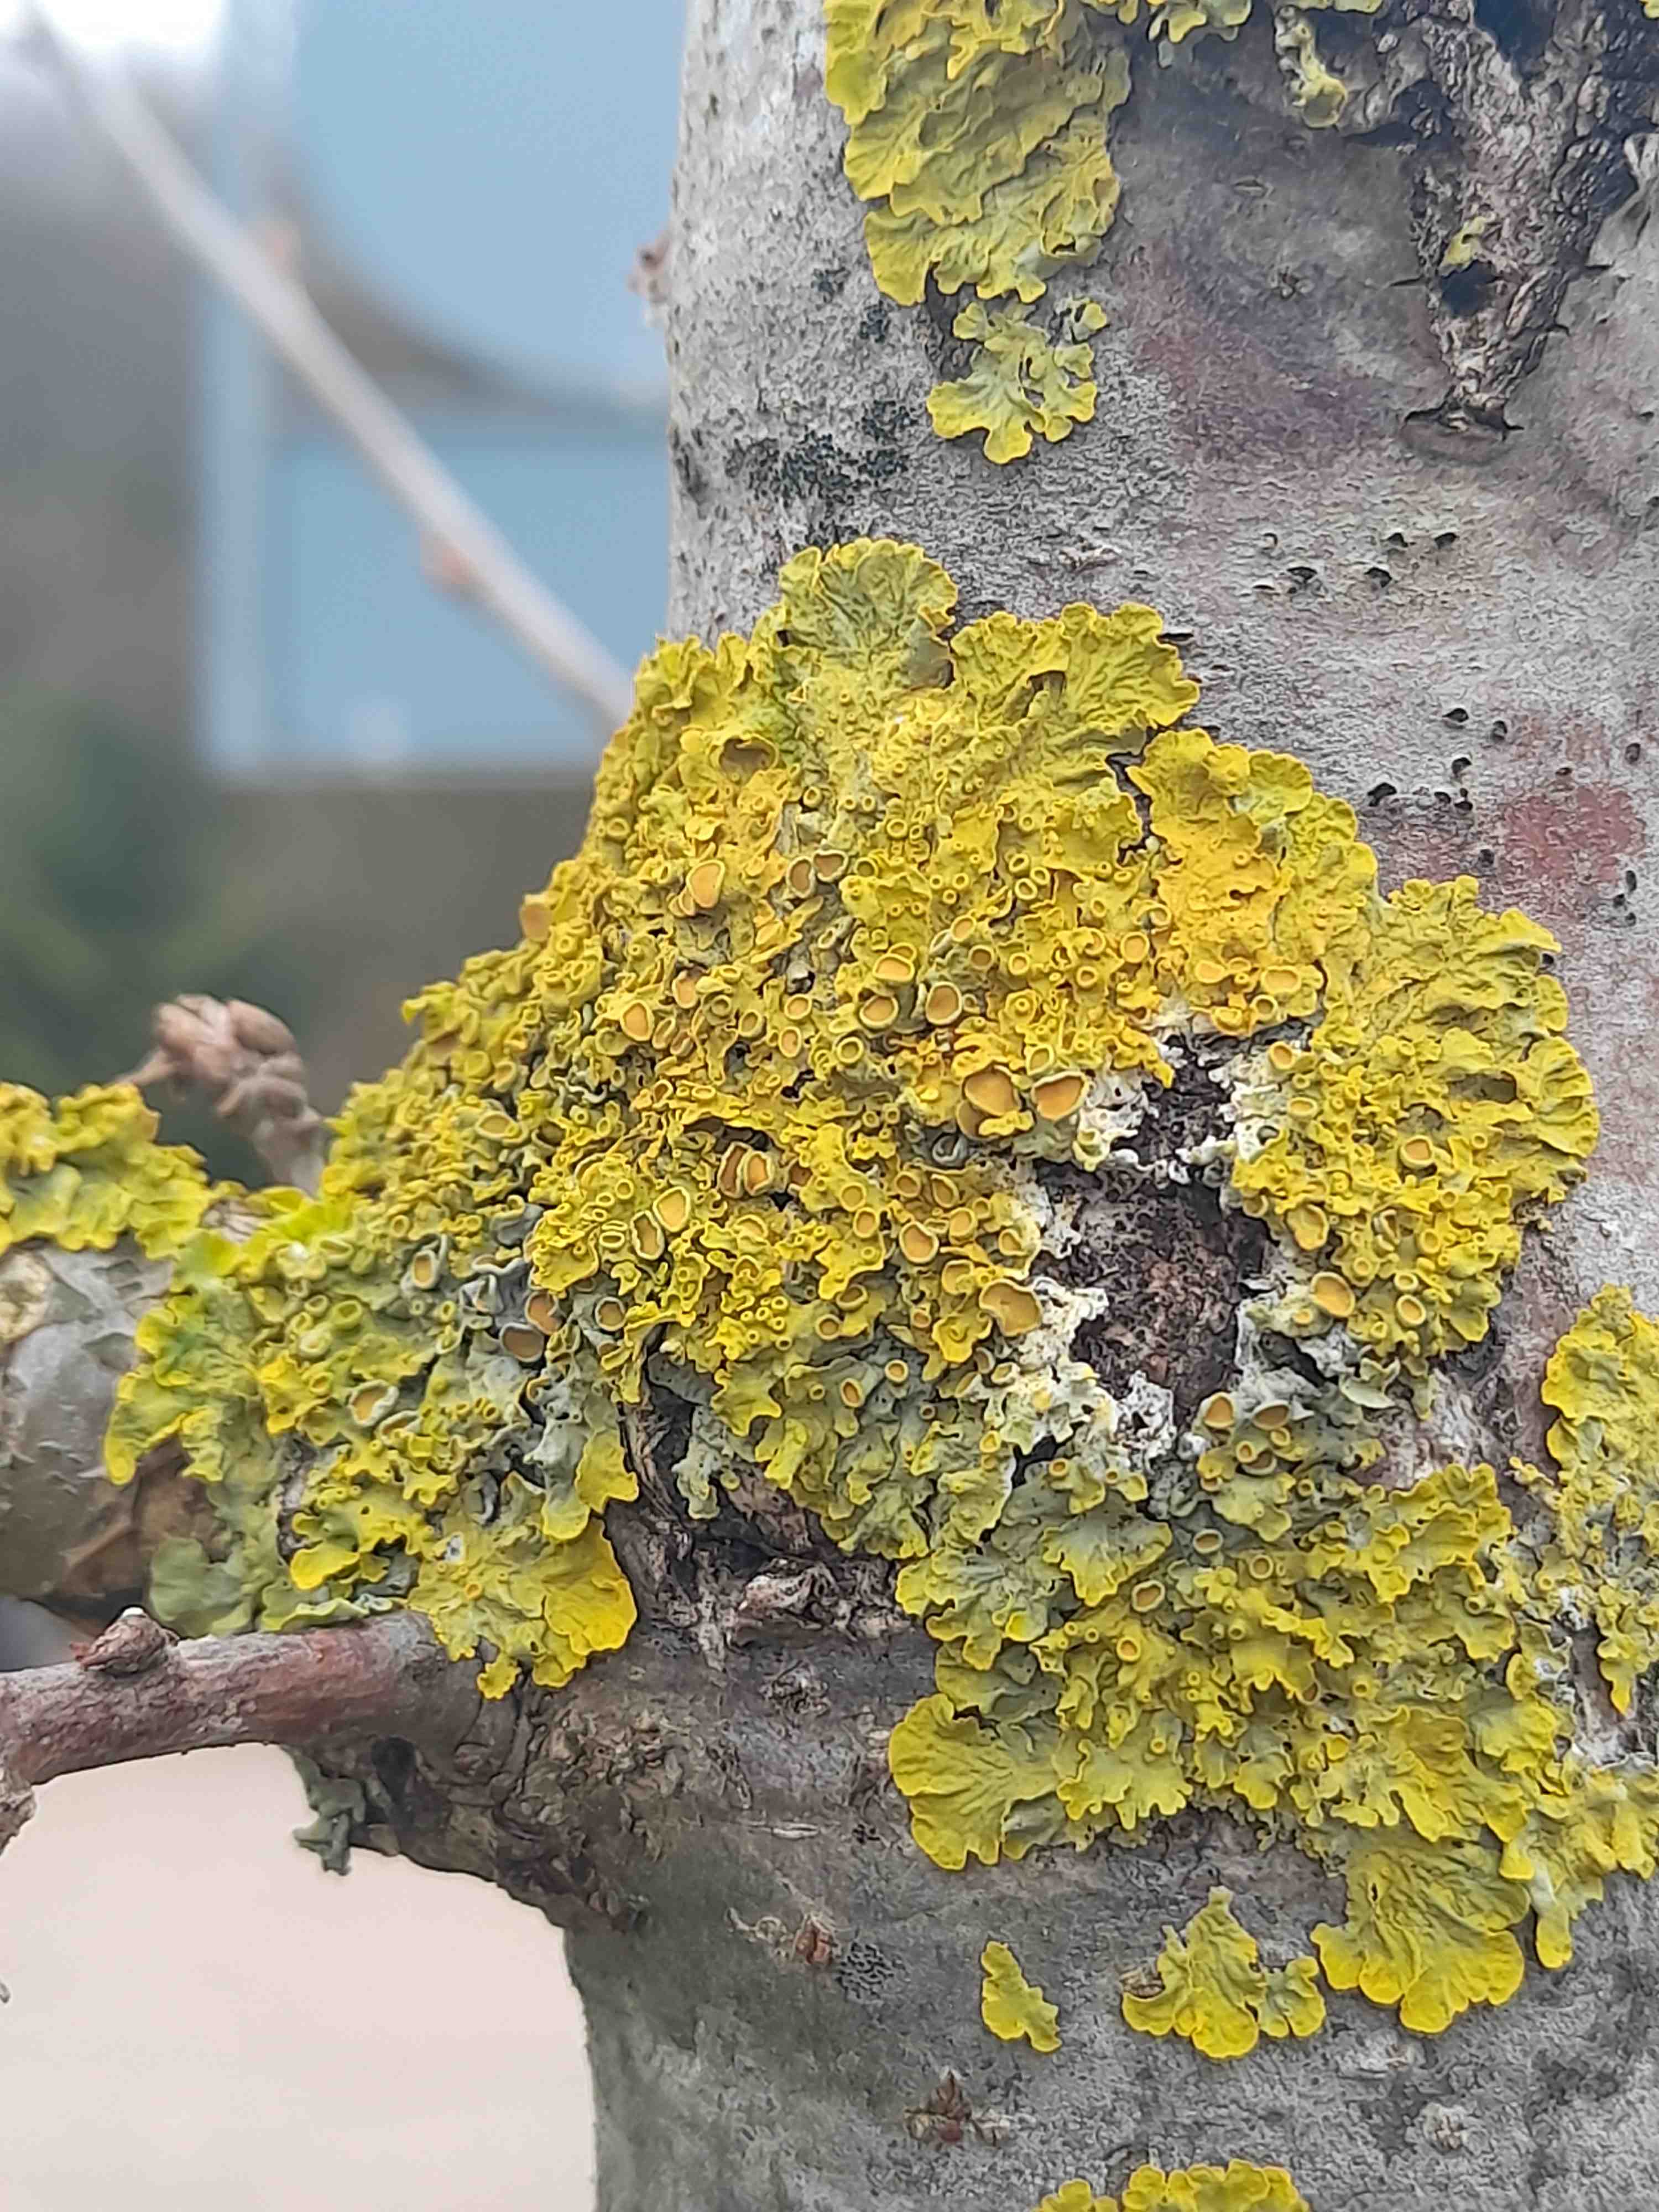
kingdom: Fungi
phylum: Ascomycota
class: Lecanoromycetes
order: Teloschistales
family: Teloschistaceae
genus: Xanthoria
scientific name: Xanthoria parietina
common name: almindelig væggelav
